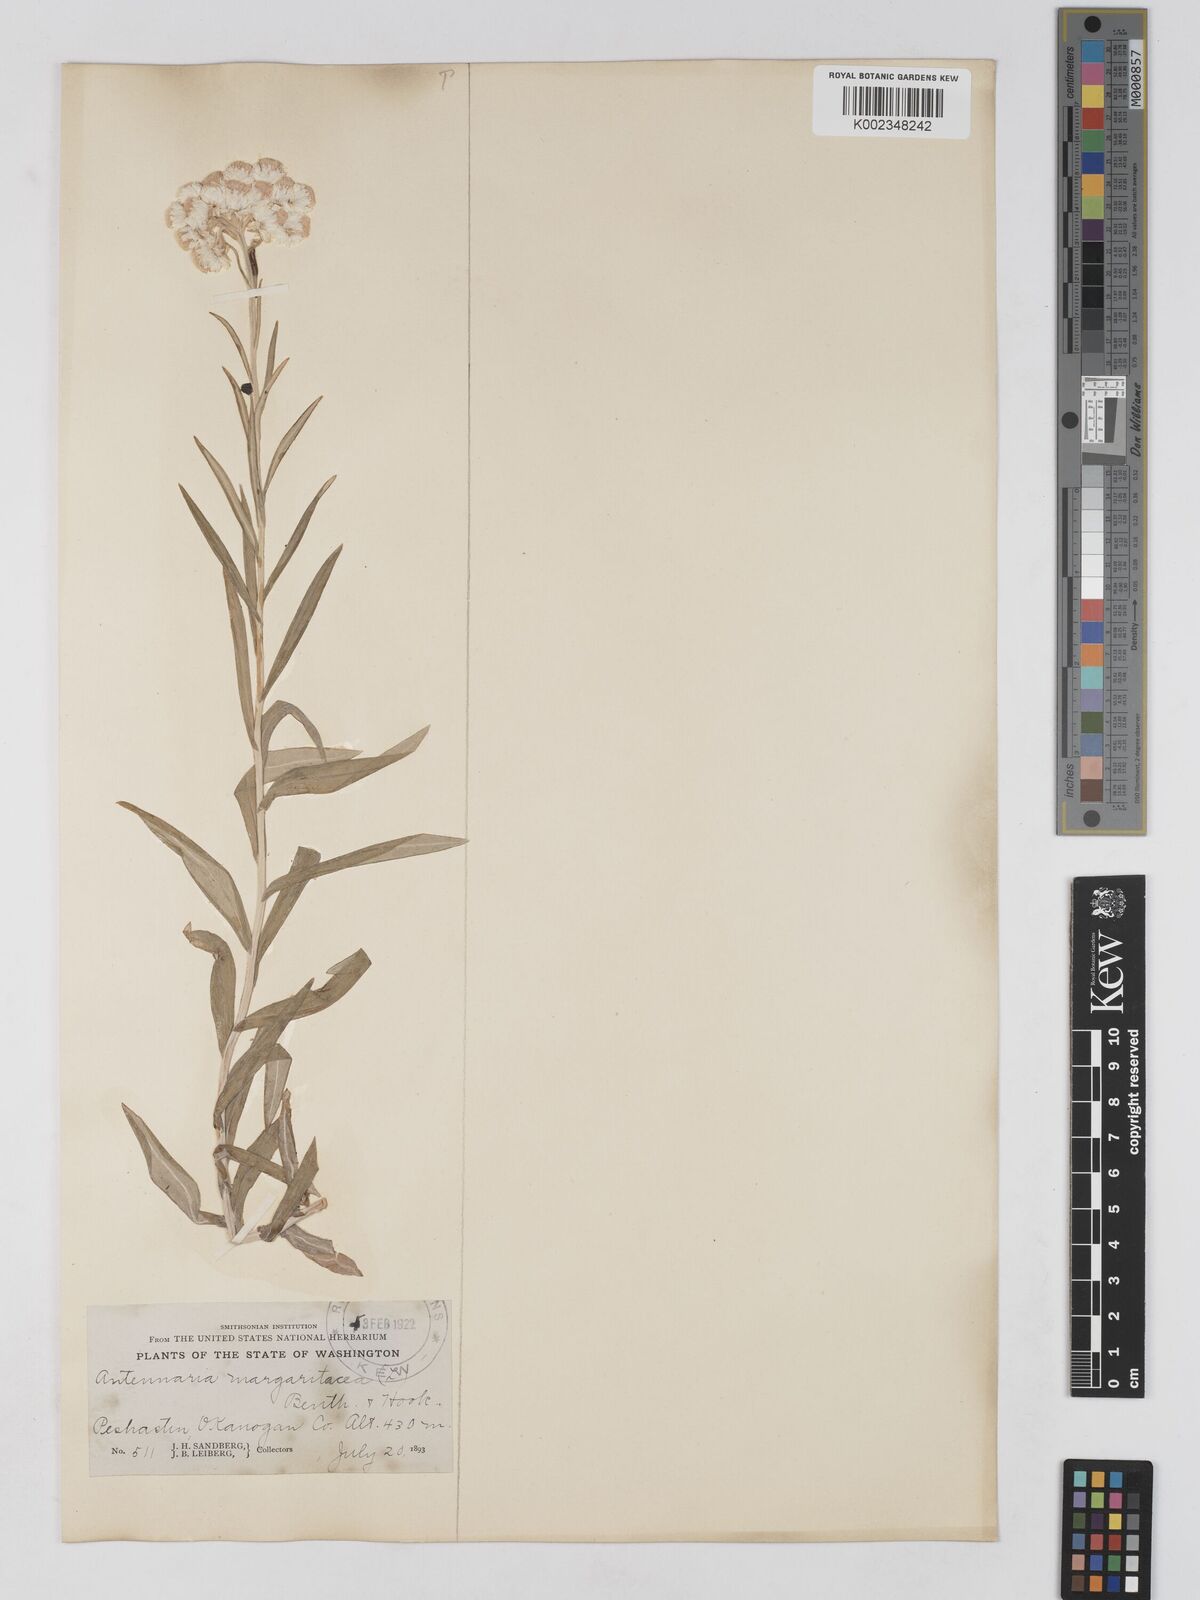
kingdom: Plantae
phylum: Tracheophyta
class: Magnoliopsida
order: Asterales
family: Asteraceae
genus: Anaphalis
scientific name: Anaphalis margaritacea
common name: Pearly everlasting
